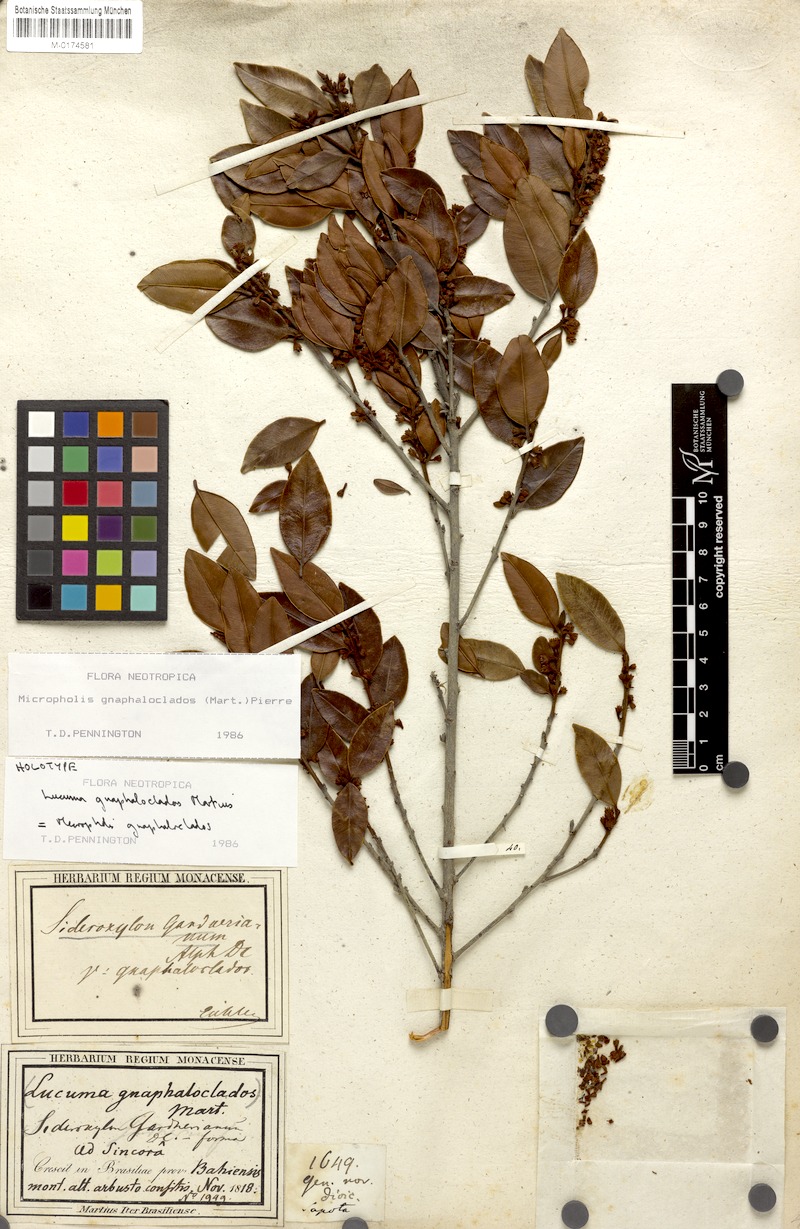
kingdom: Plantae
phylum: Tracheophyta
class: Magnoliopsida
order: Ericales
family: Sapotaceae
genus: Micropholis
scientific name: Micropholis gnaphaloclados
